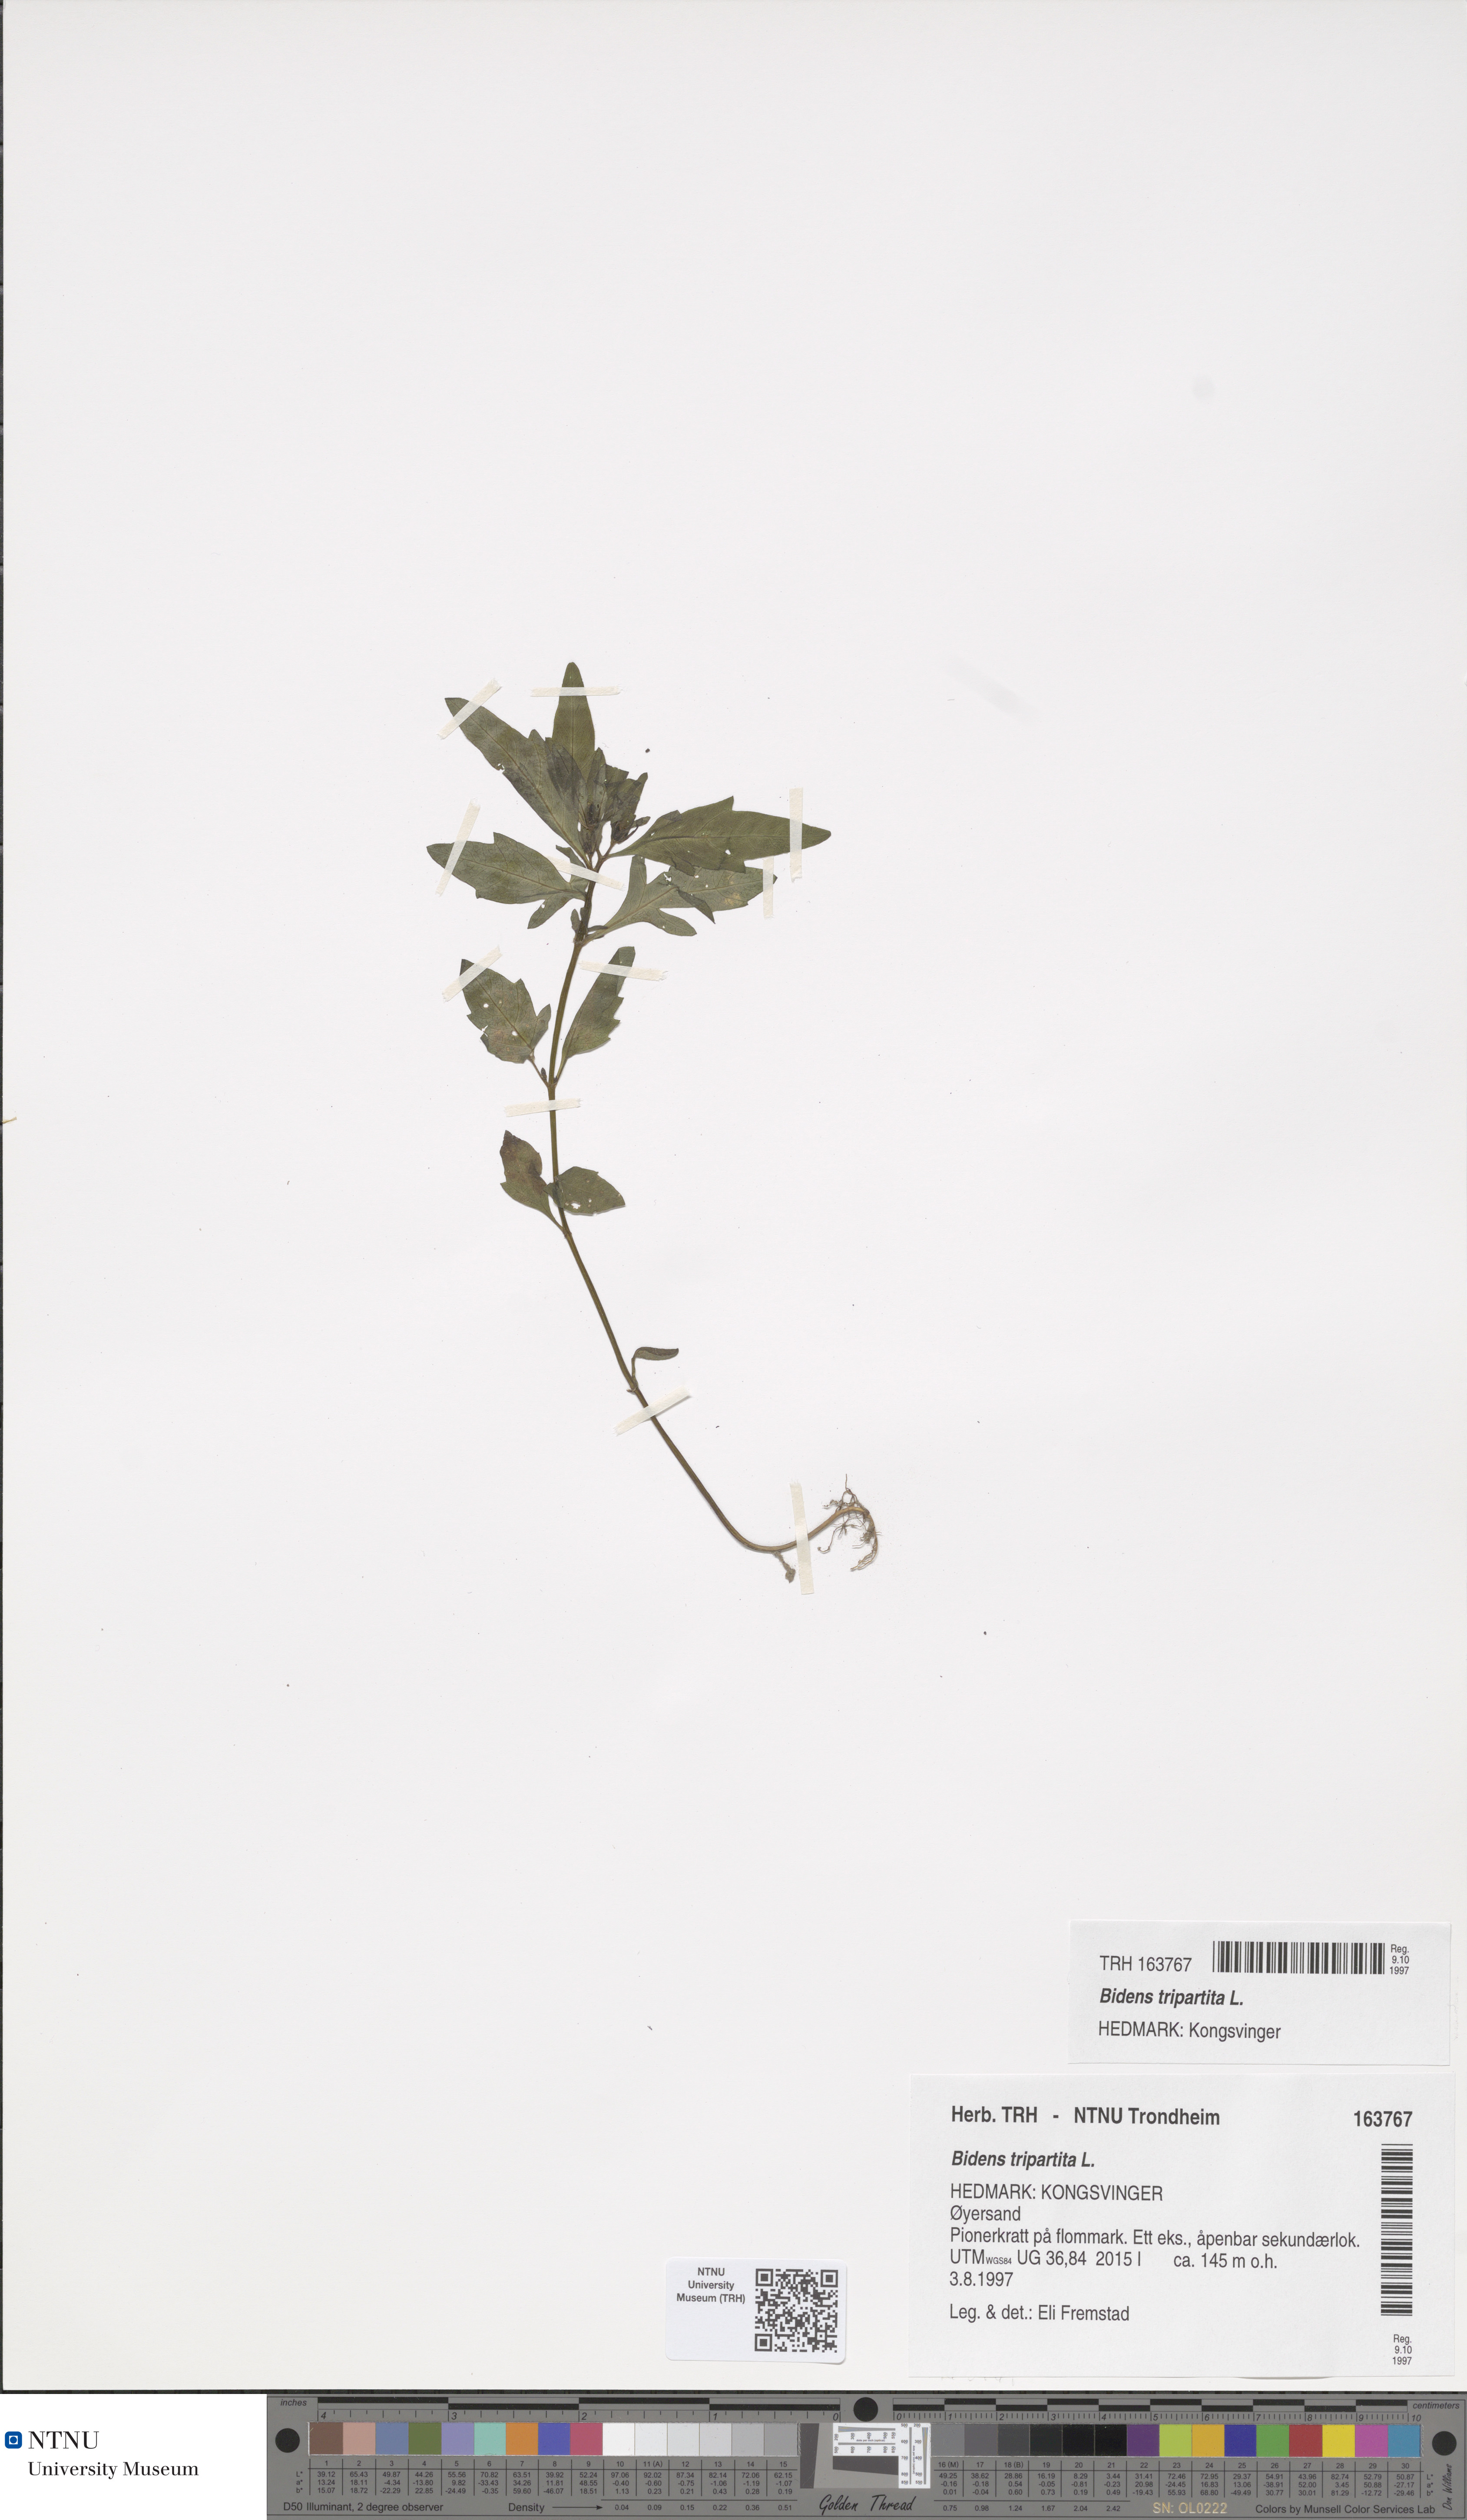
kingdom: Plantae
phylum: Tracheophyta
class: Magnoliopsida
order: Asterales
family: Asteraceae
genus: Bidens
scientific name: Bidens tripartita
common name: Trifid bur-marigold
